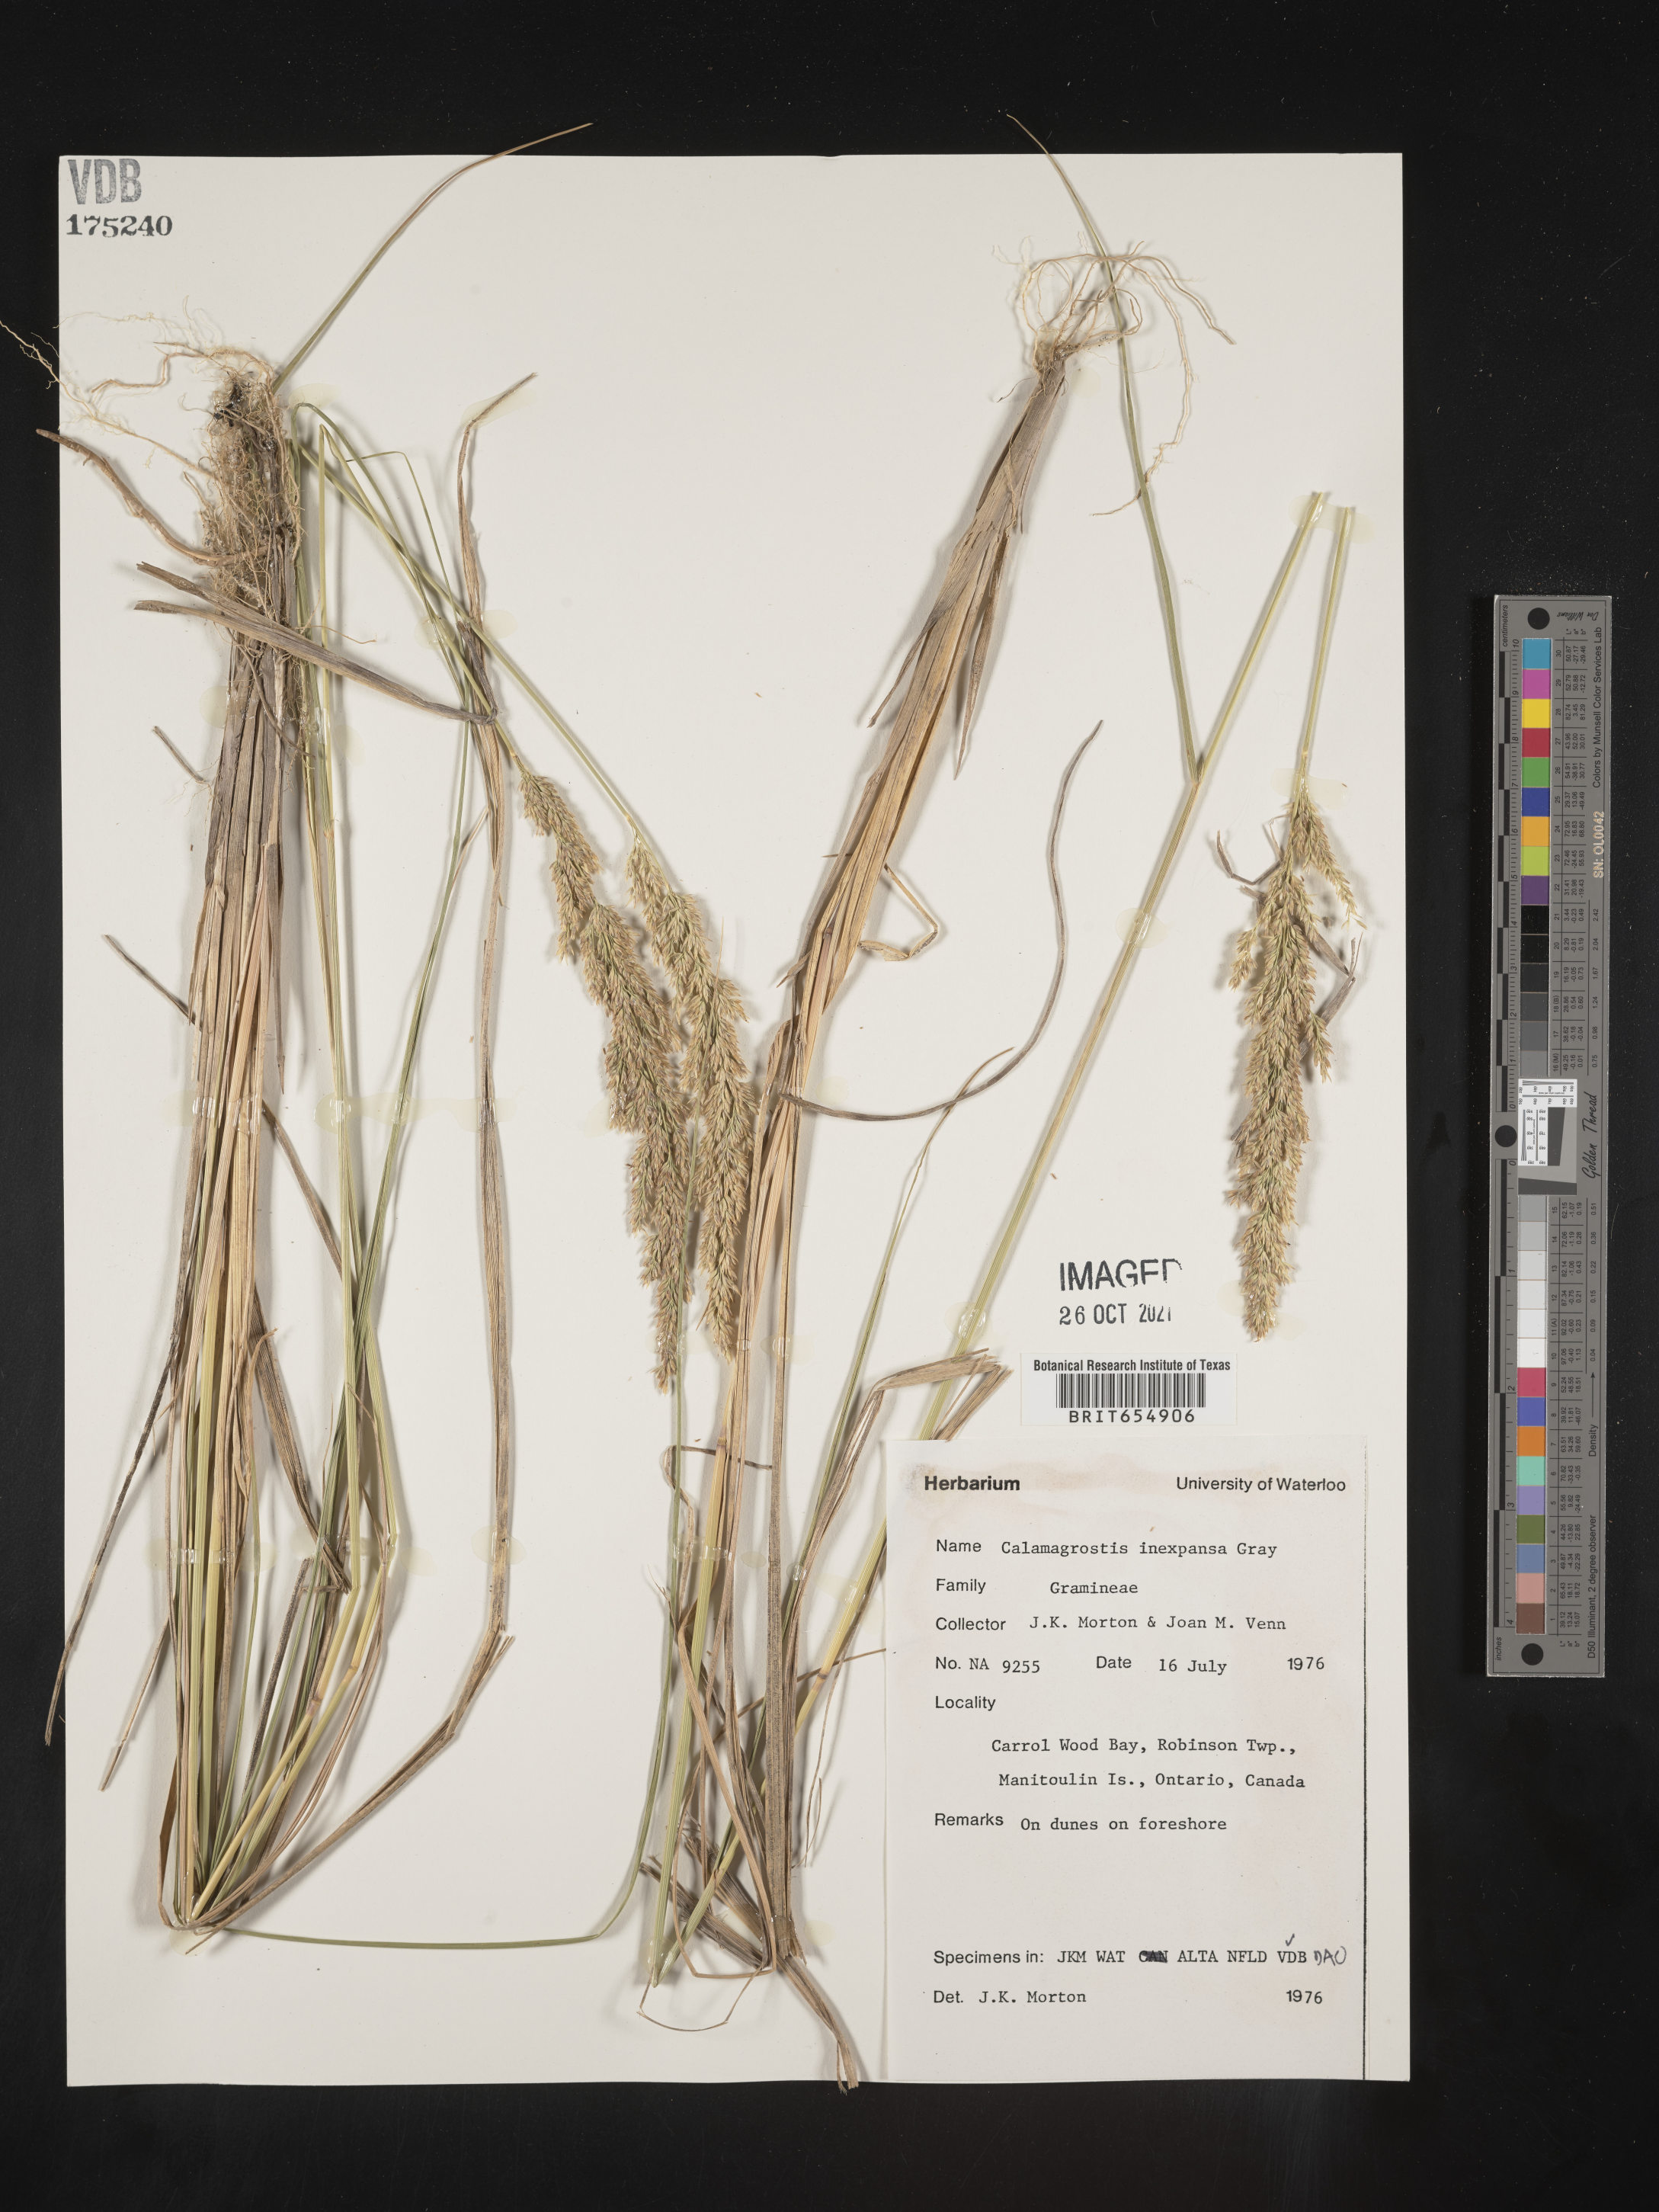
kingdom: Plantae
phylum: Tracheophyta
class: Liliopsida
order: Poales
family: Poaceae
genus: Calamagrostis
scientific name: Calamagrostis
